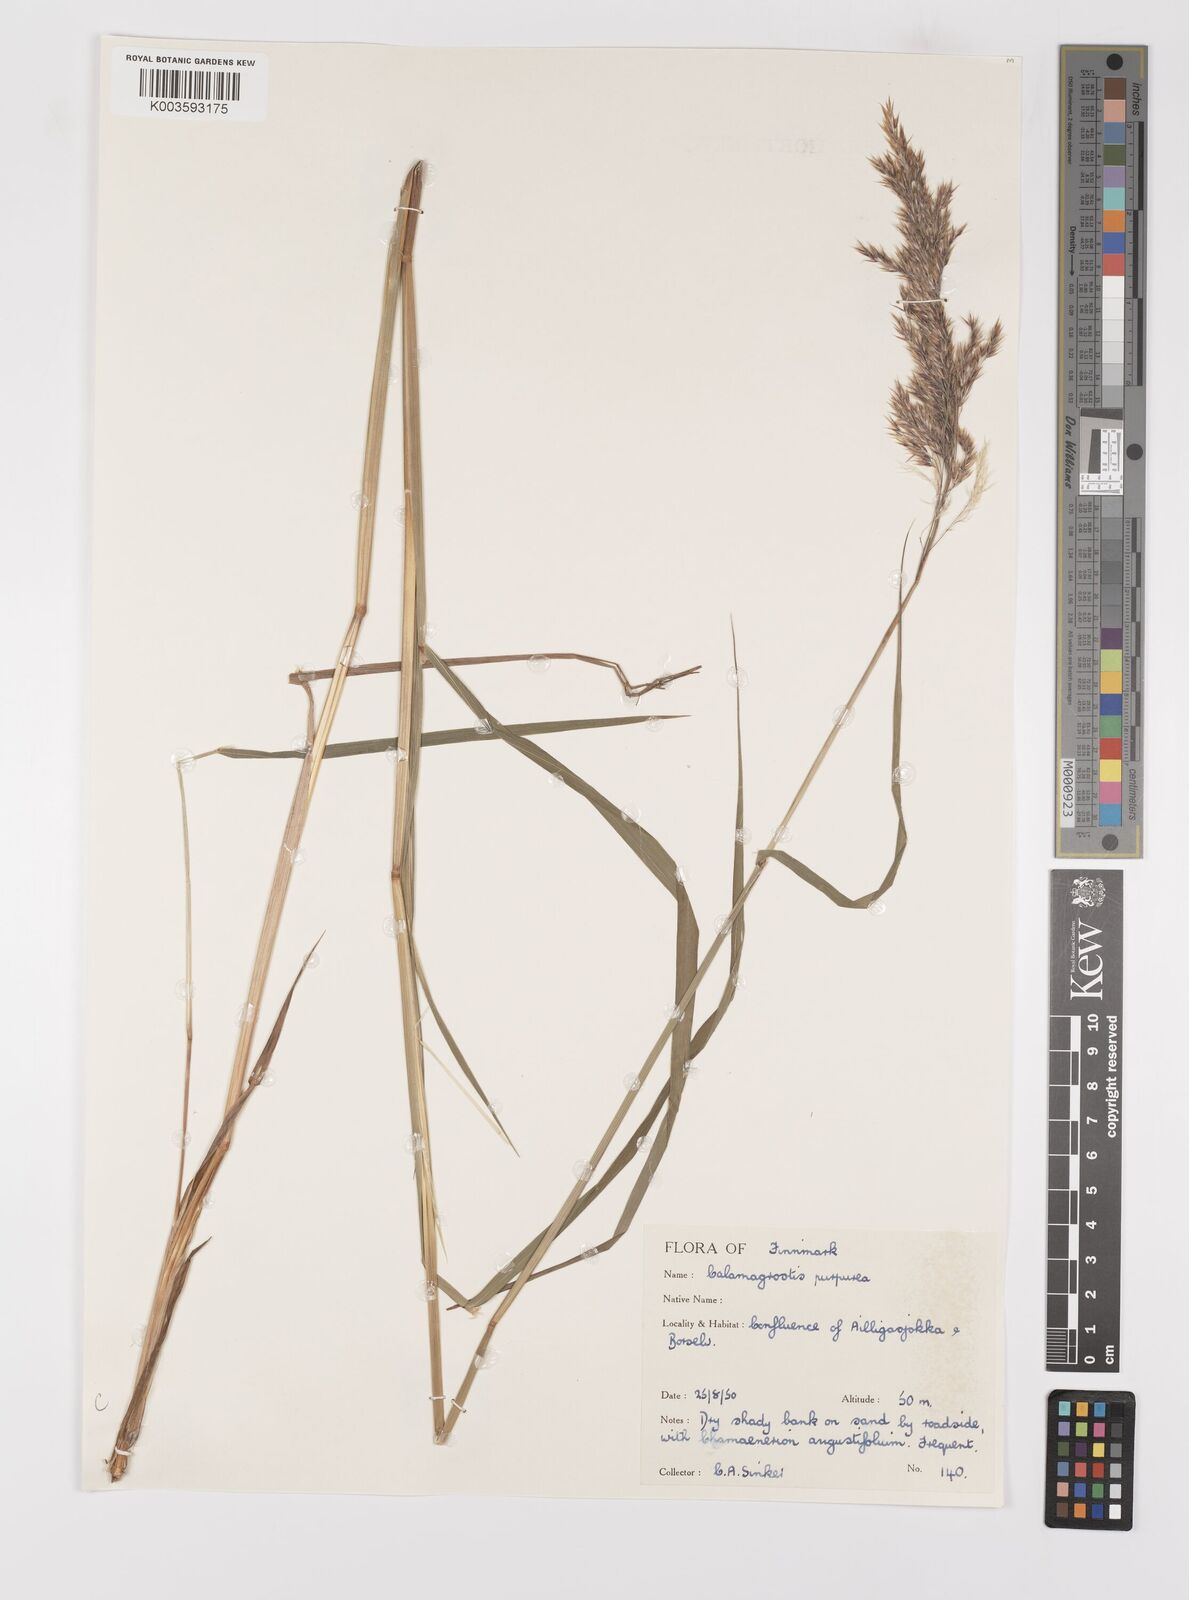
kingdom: Plantae
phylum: Tracheophyta
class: Liliopsida
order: Poales
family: Poaceae
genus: Calamagrostis
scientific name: Calamagrostis
